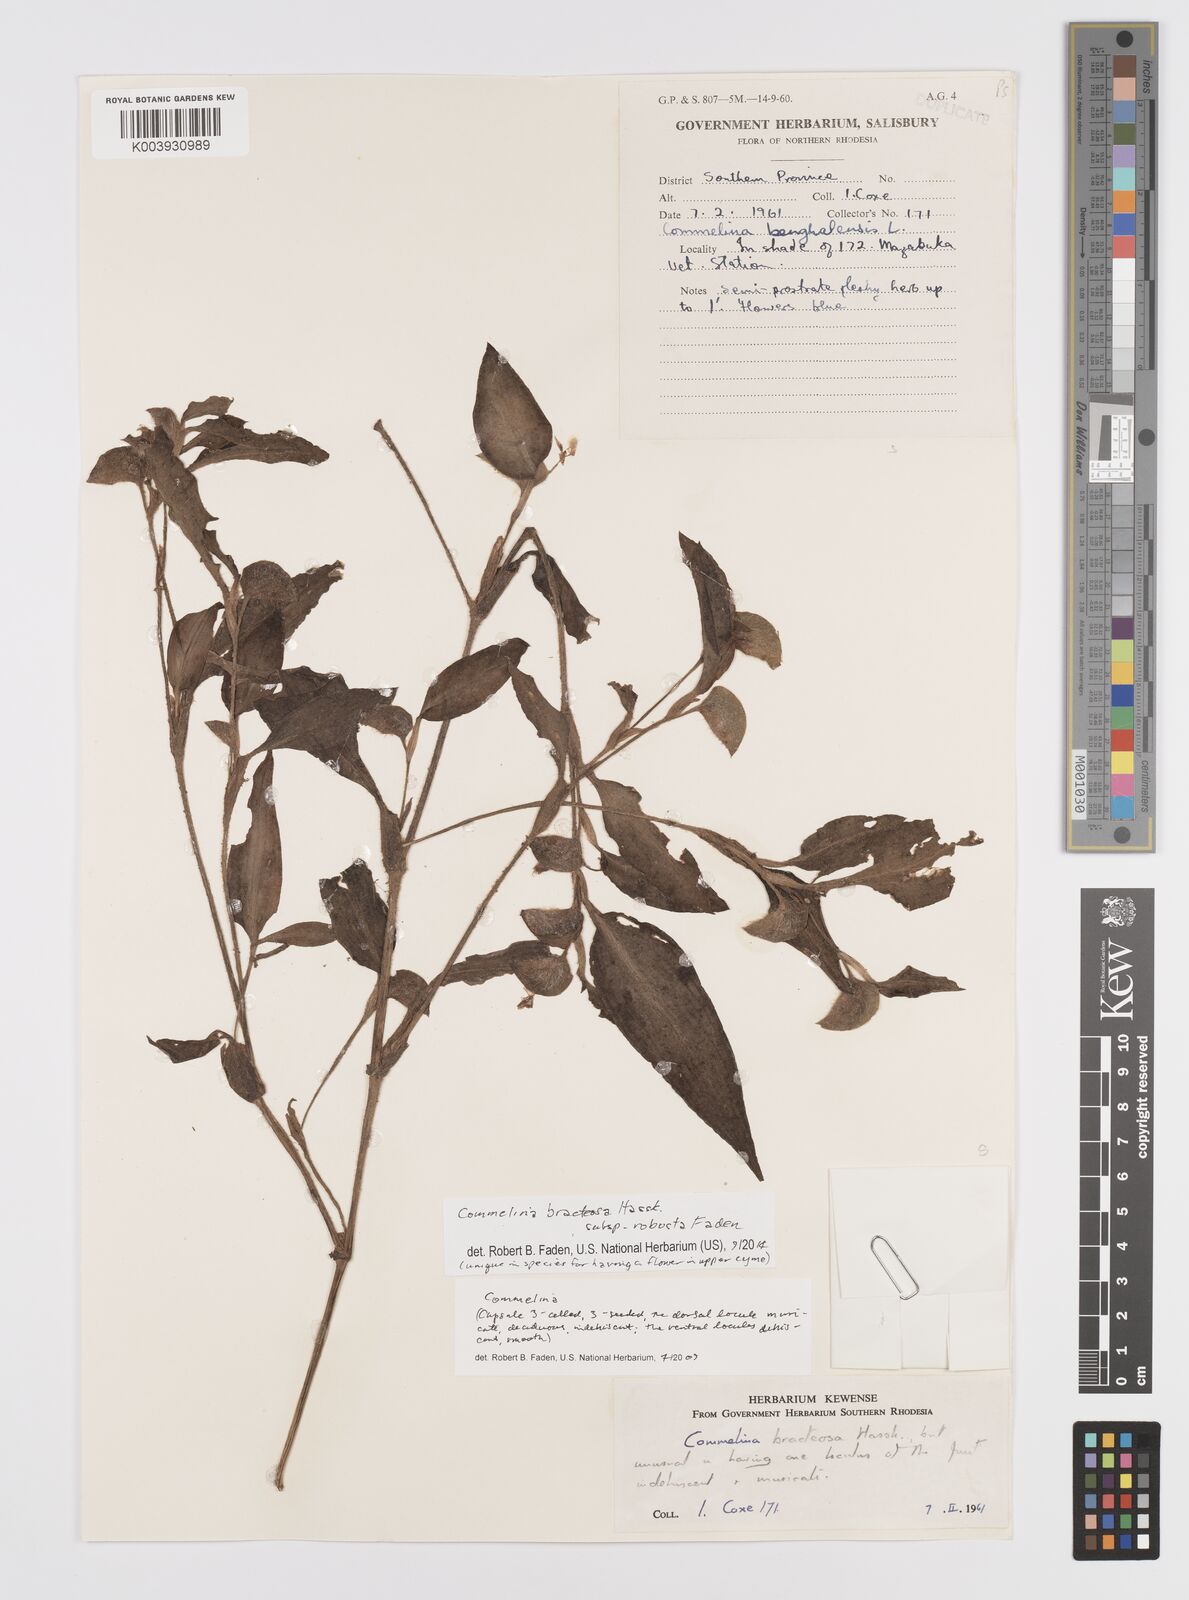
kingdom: Plantae
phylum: Tracheophyta
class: Liliopsida
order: Commelinales
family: Commelinaceae
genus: Commelina
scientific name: Commelina bracteosa
